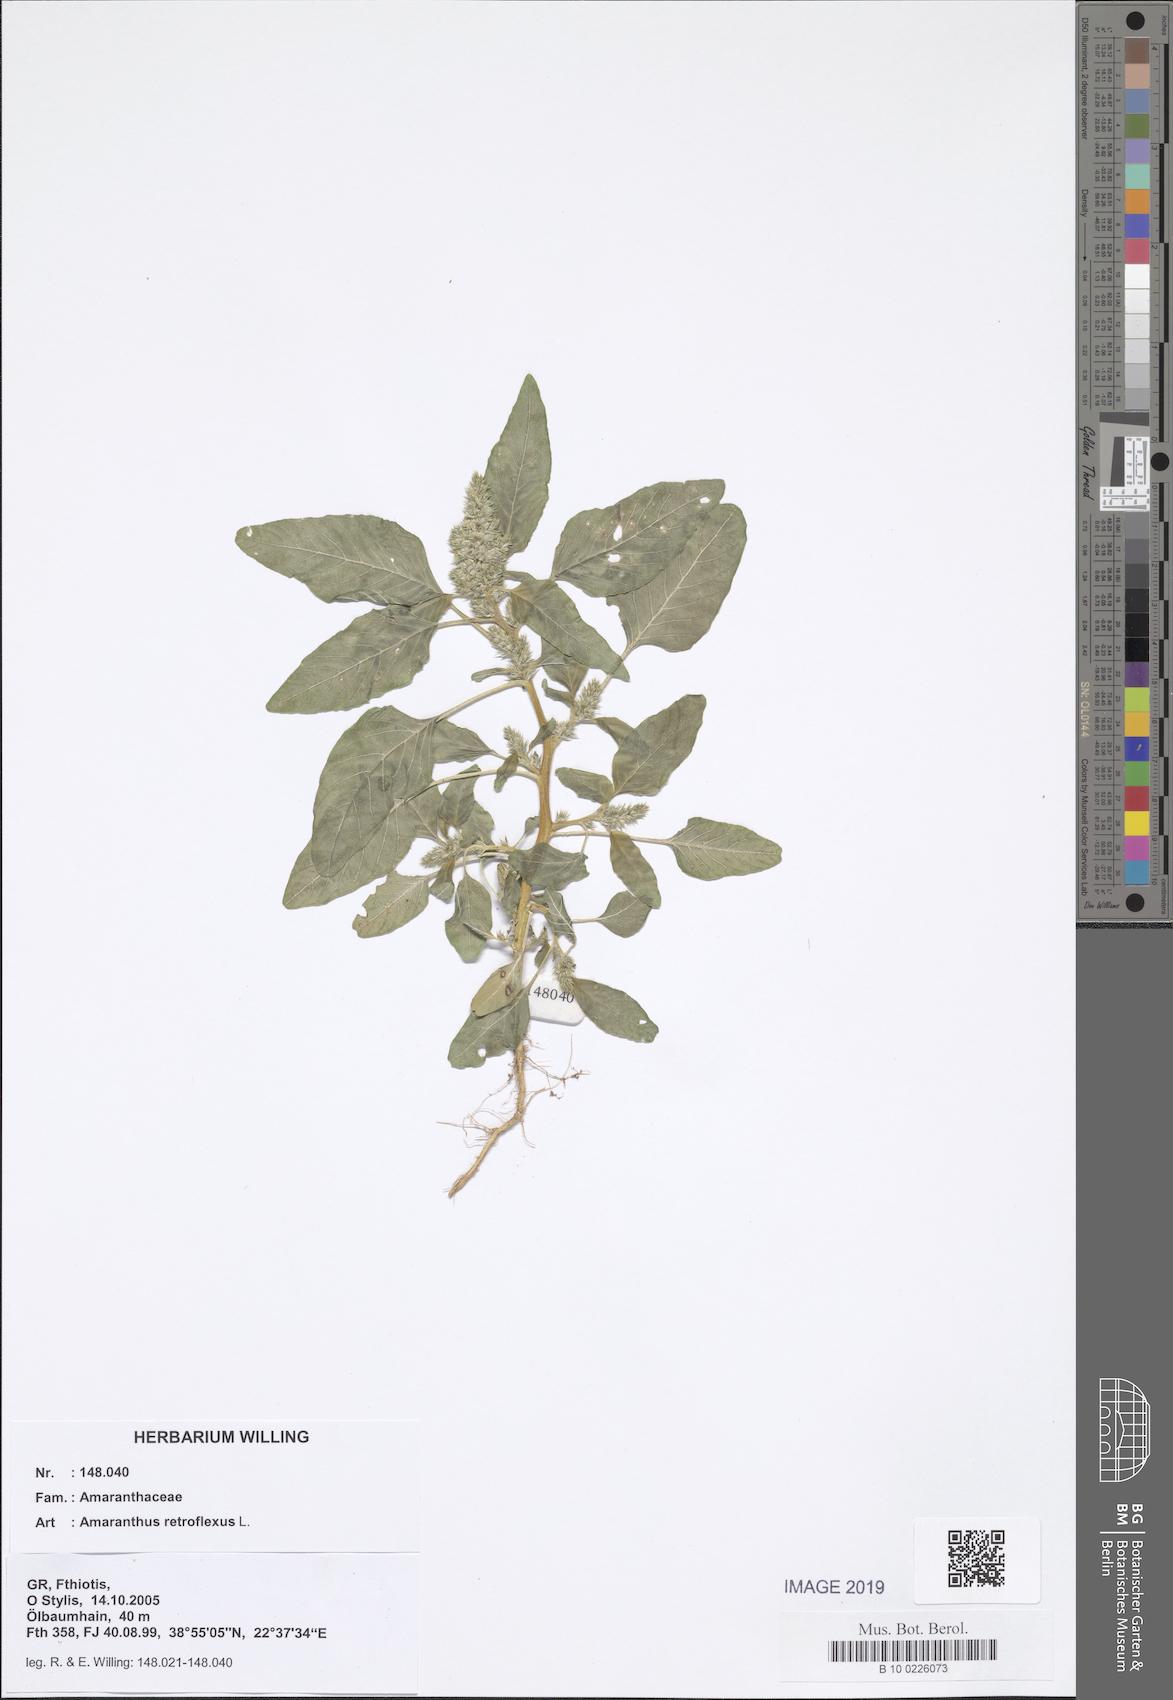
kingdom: Plantae
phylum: Tracheophyta
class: Magnoliopsida
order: Caryophyllales
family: Amaranthaceae
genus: Amaranthus
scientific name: Amaranthus retroflexus
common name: Redroot amaranth
